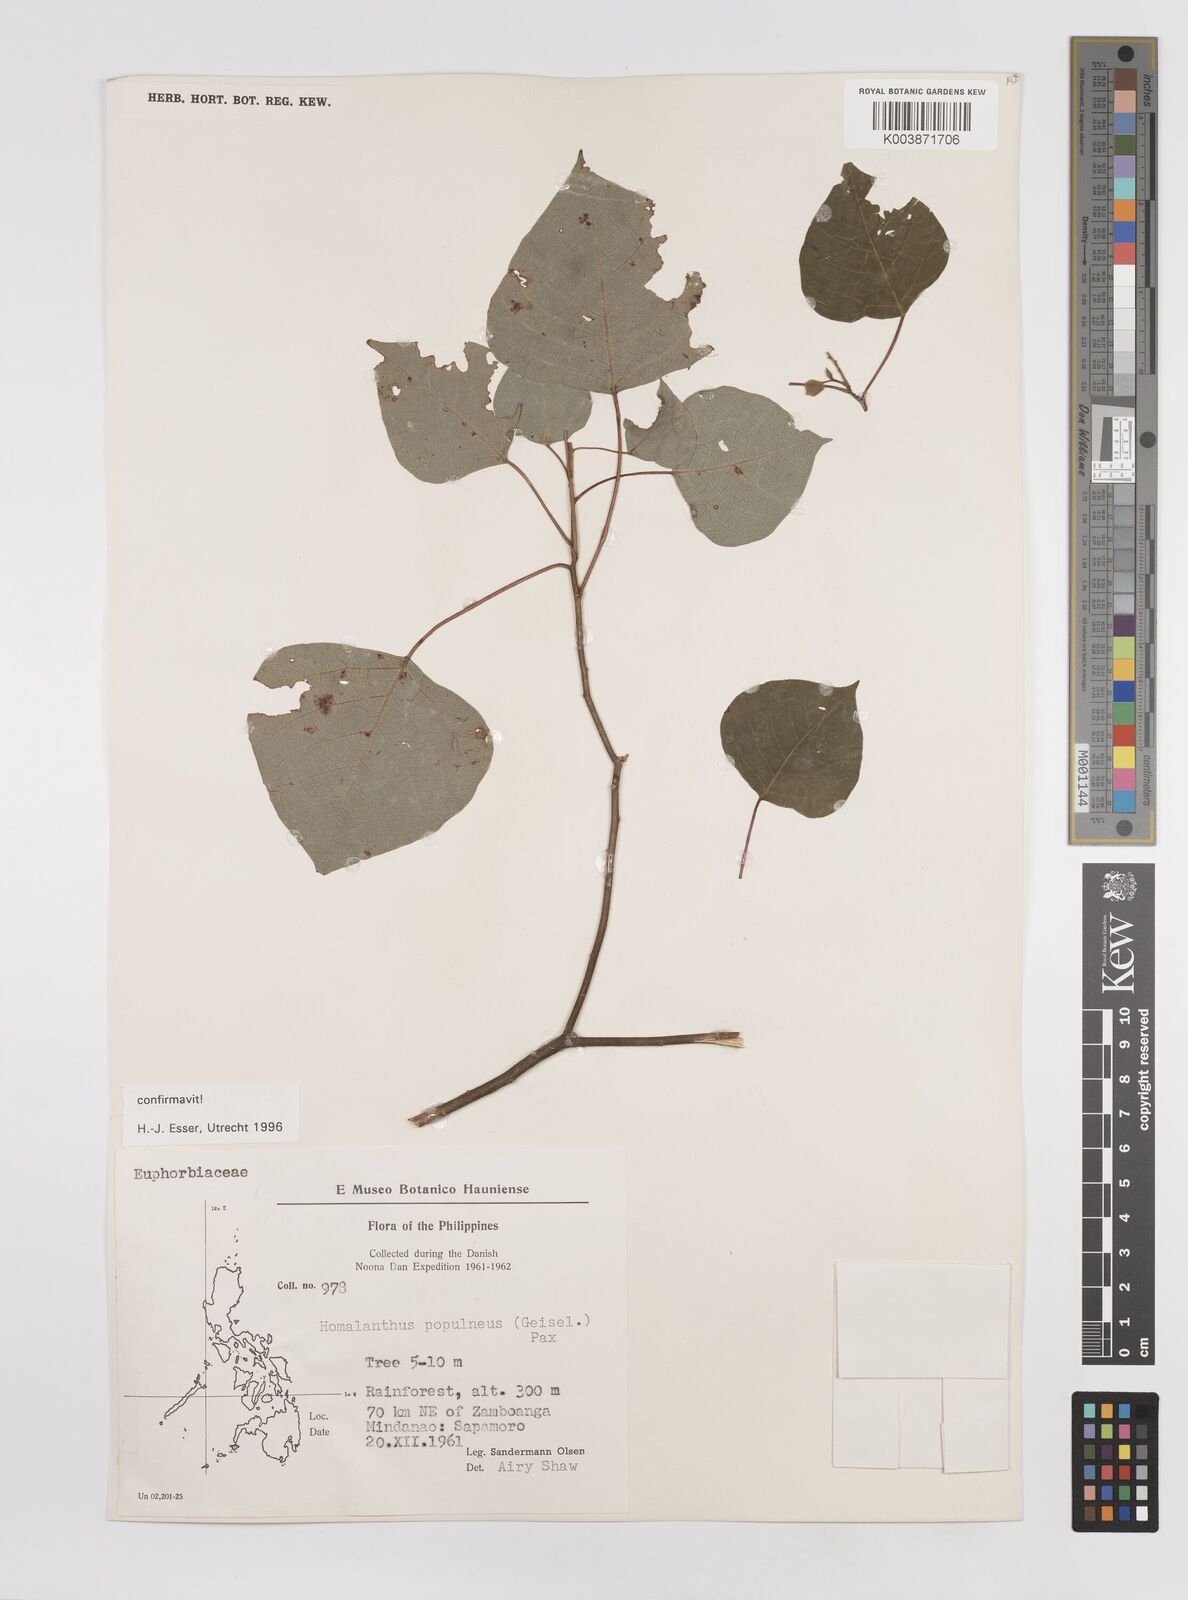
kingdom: Plantae
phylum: Tracheophyta
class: Magnoliopsida
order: Malpighiales
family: Euphorbiaceae
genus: Homalanthus
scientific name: Homalanthus populneus
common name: Spurge
